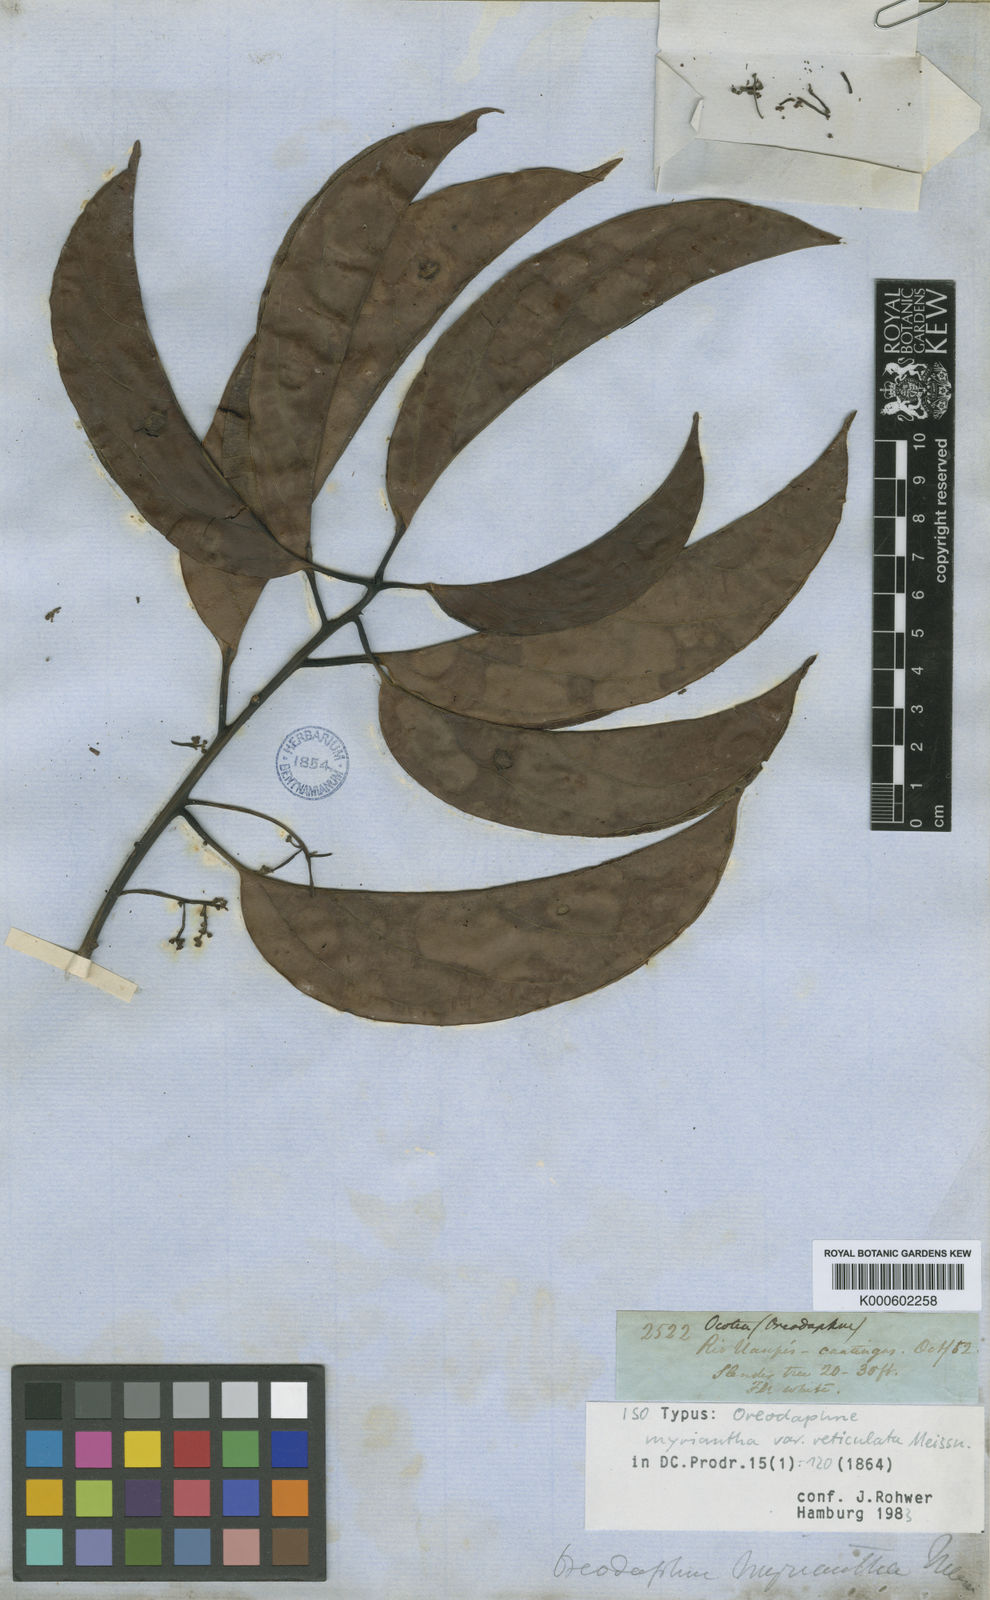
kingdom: Plantae
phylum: Tracheophyta
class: Magnoliopsida
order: Laurales
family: Lauraceae
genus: Ocotea
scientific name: Ocotea myriantha
